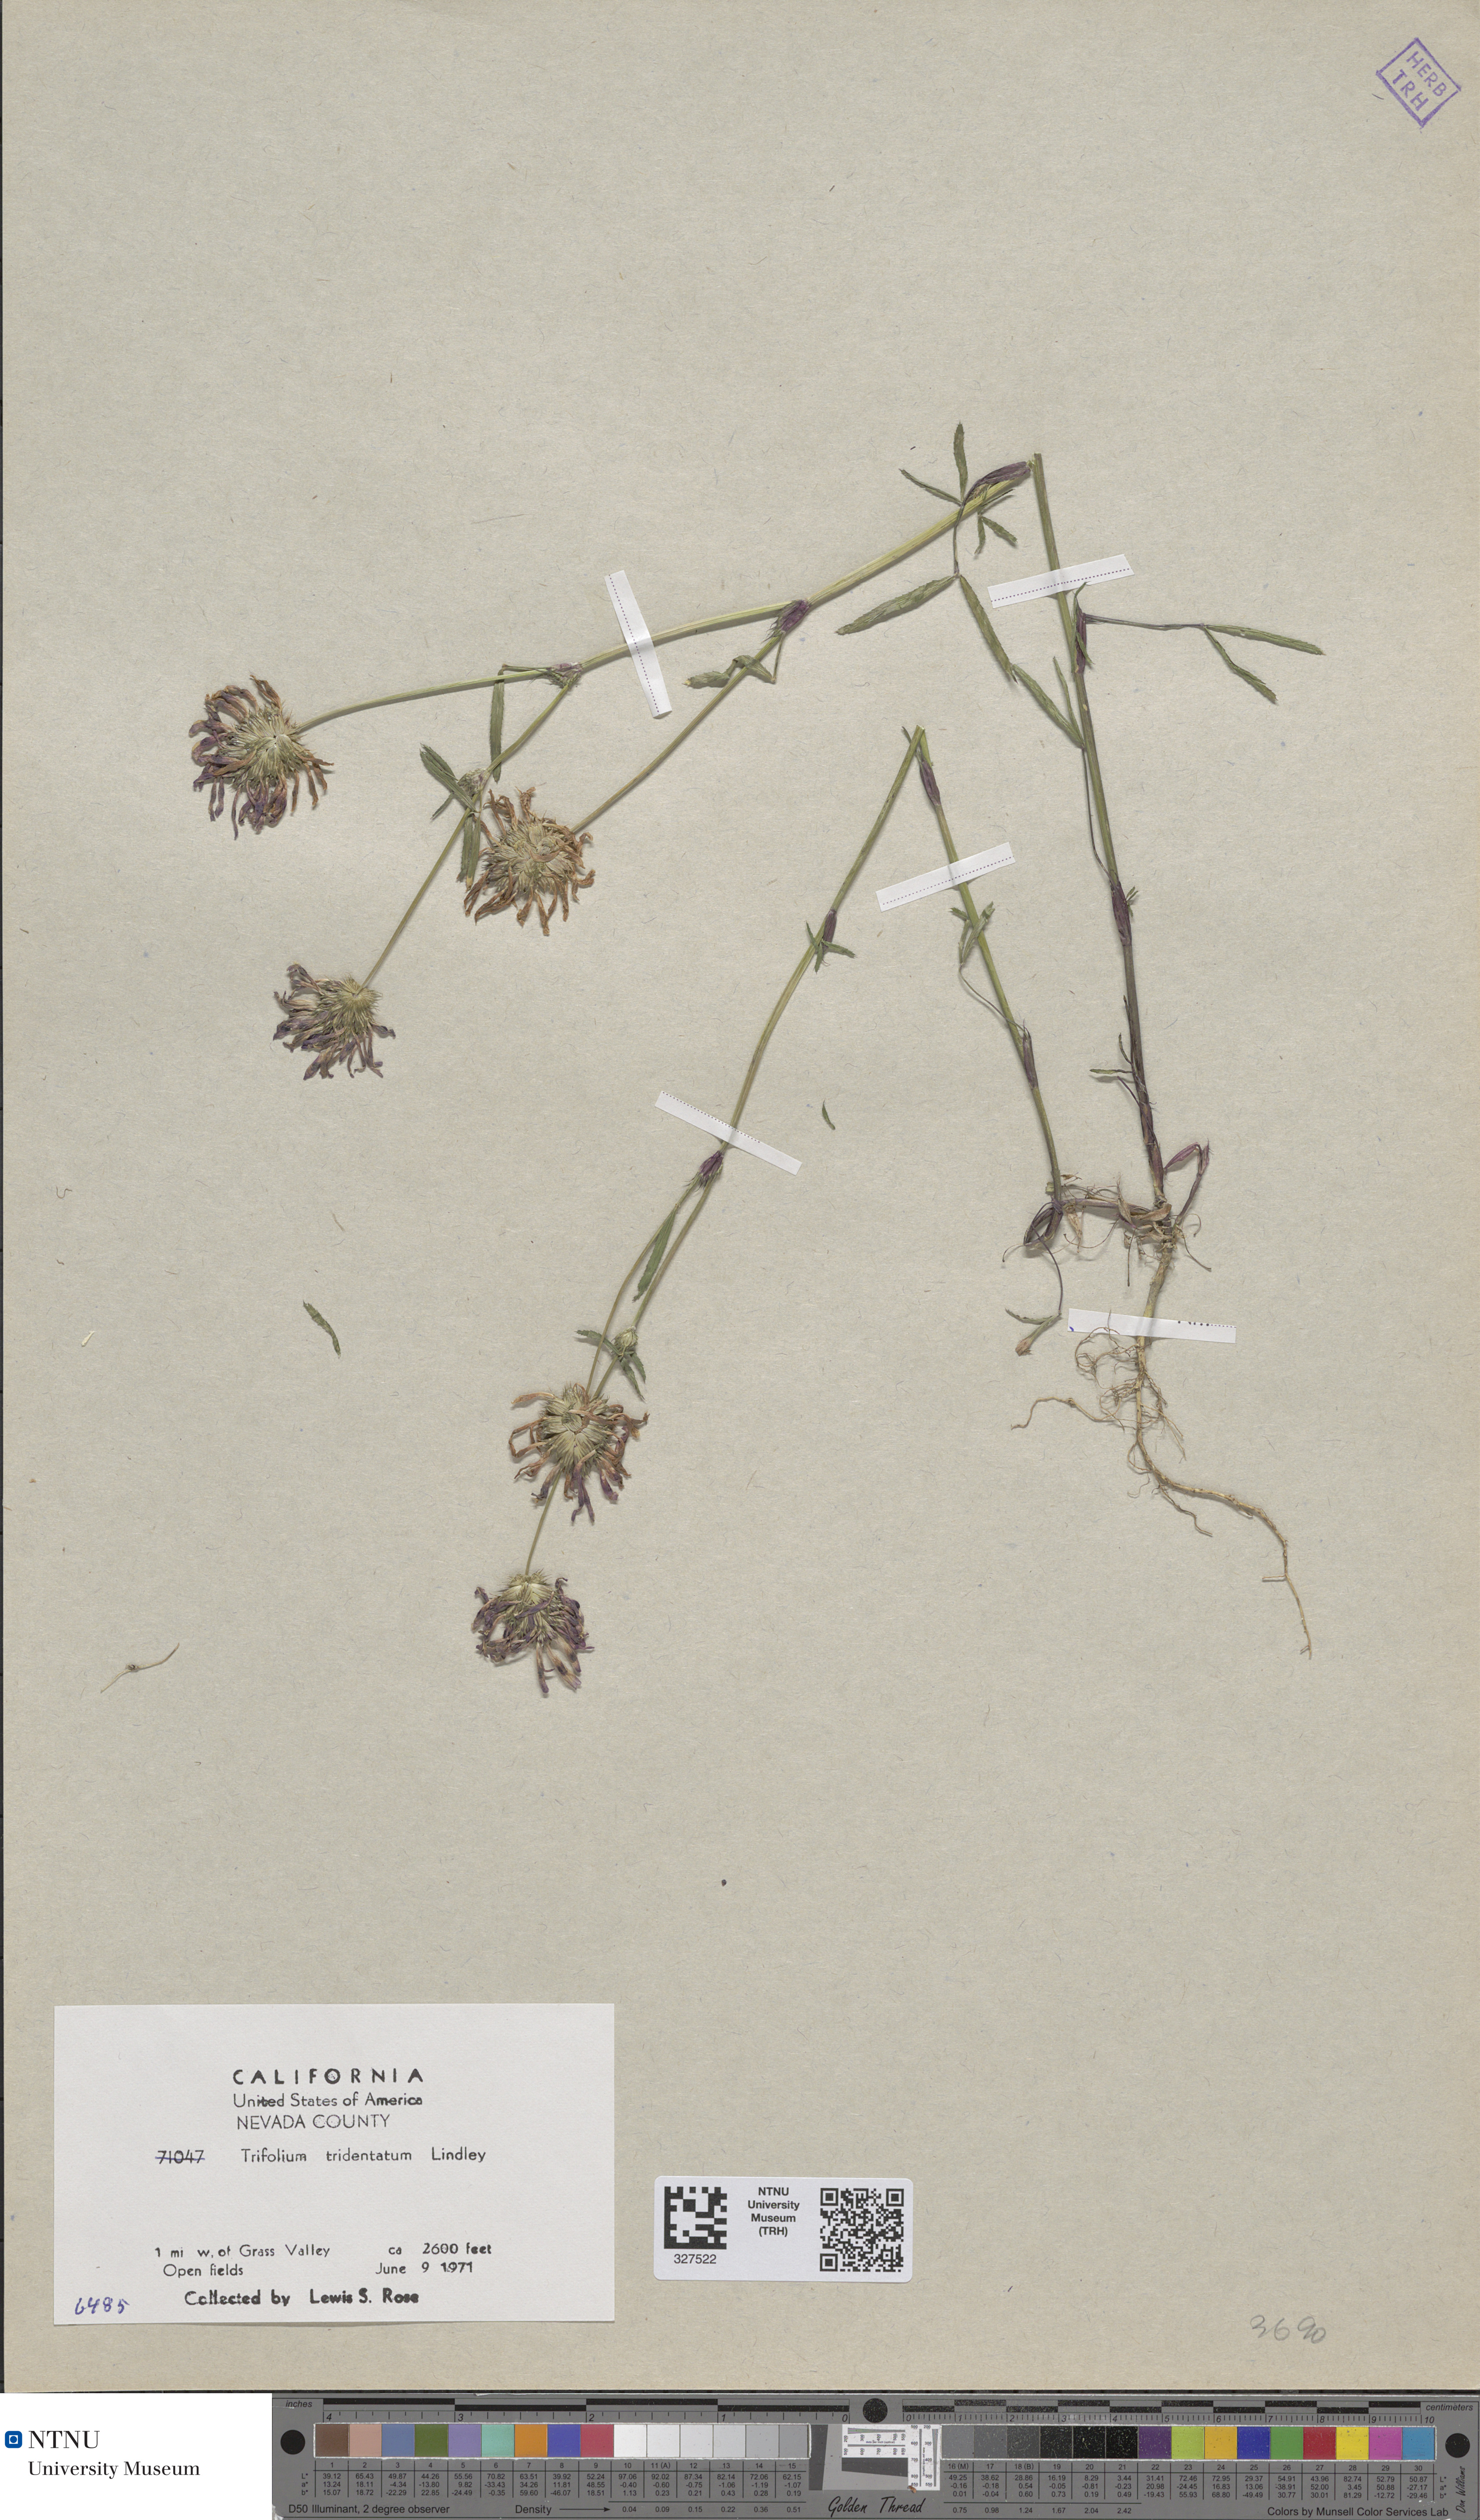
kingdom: Plantae
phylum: Tracheophyta
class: Magnoliopsida
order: Fabales
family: Fabaceae
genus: Trifolium
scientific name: Trifolium willdenowii
